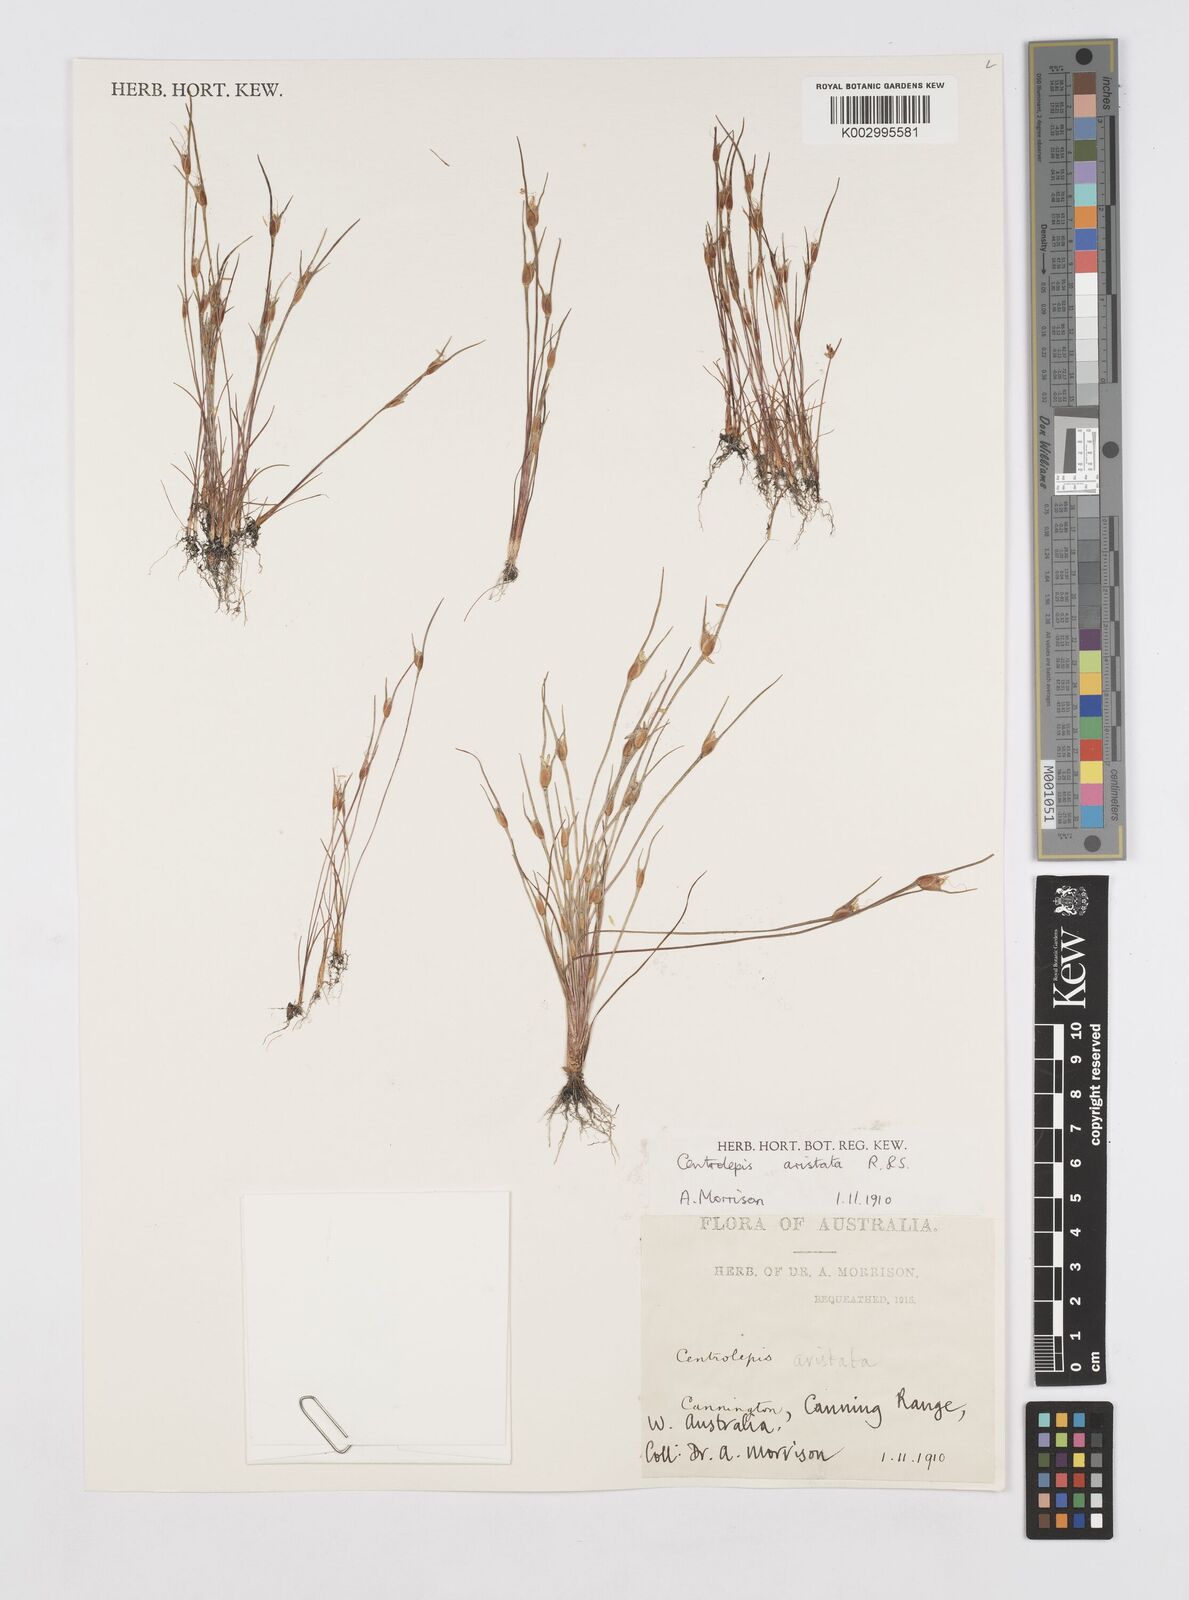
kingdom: Plantae
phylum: Tracheophyta
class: Liliopsida
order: Poales
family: Restionaceae
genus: Centrolepis
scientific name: Centrolepis aristata
